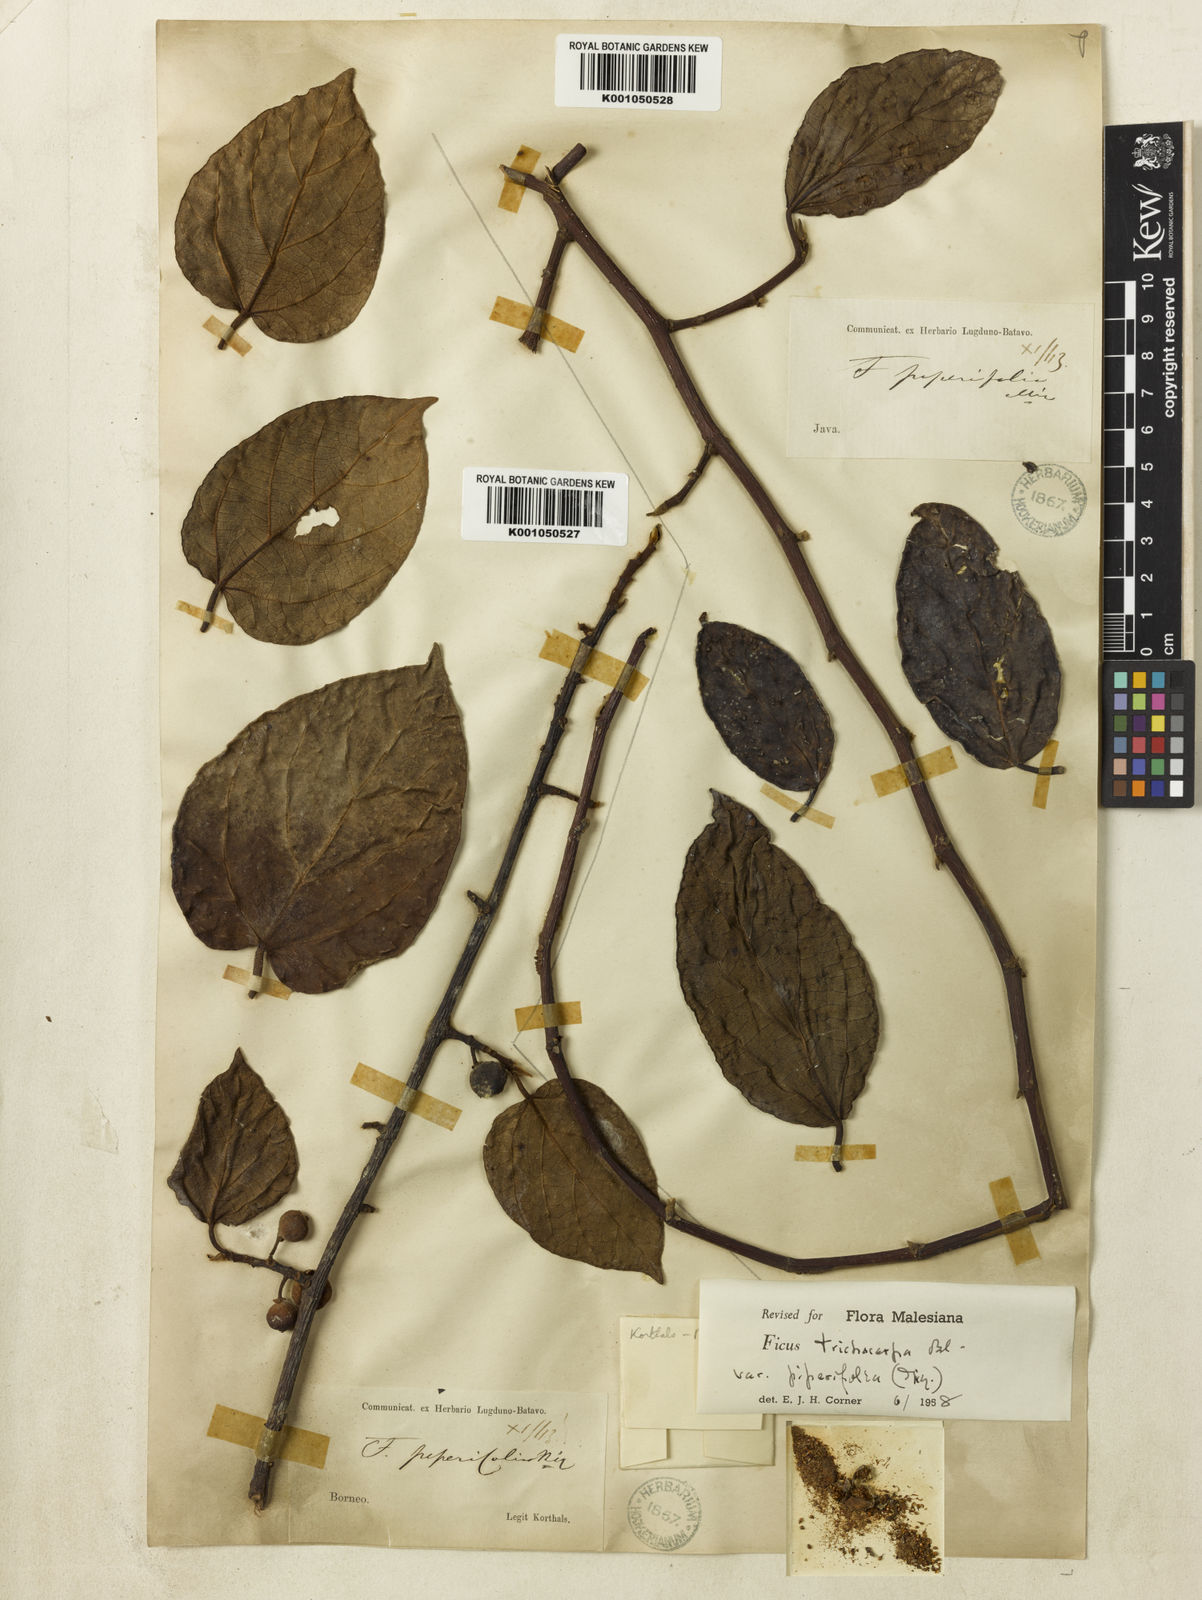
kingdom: Plantae
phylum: Tracheophyta
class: Magnoliopsida
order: Rosales
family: Moraceae
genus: Ficus
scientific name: Ficus trichocarpa
